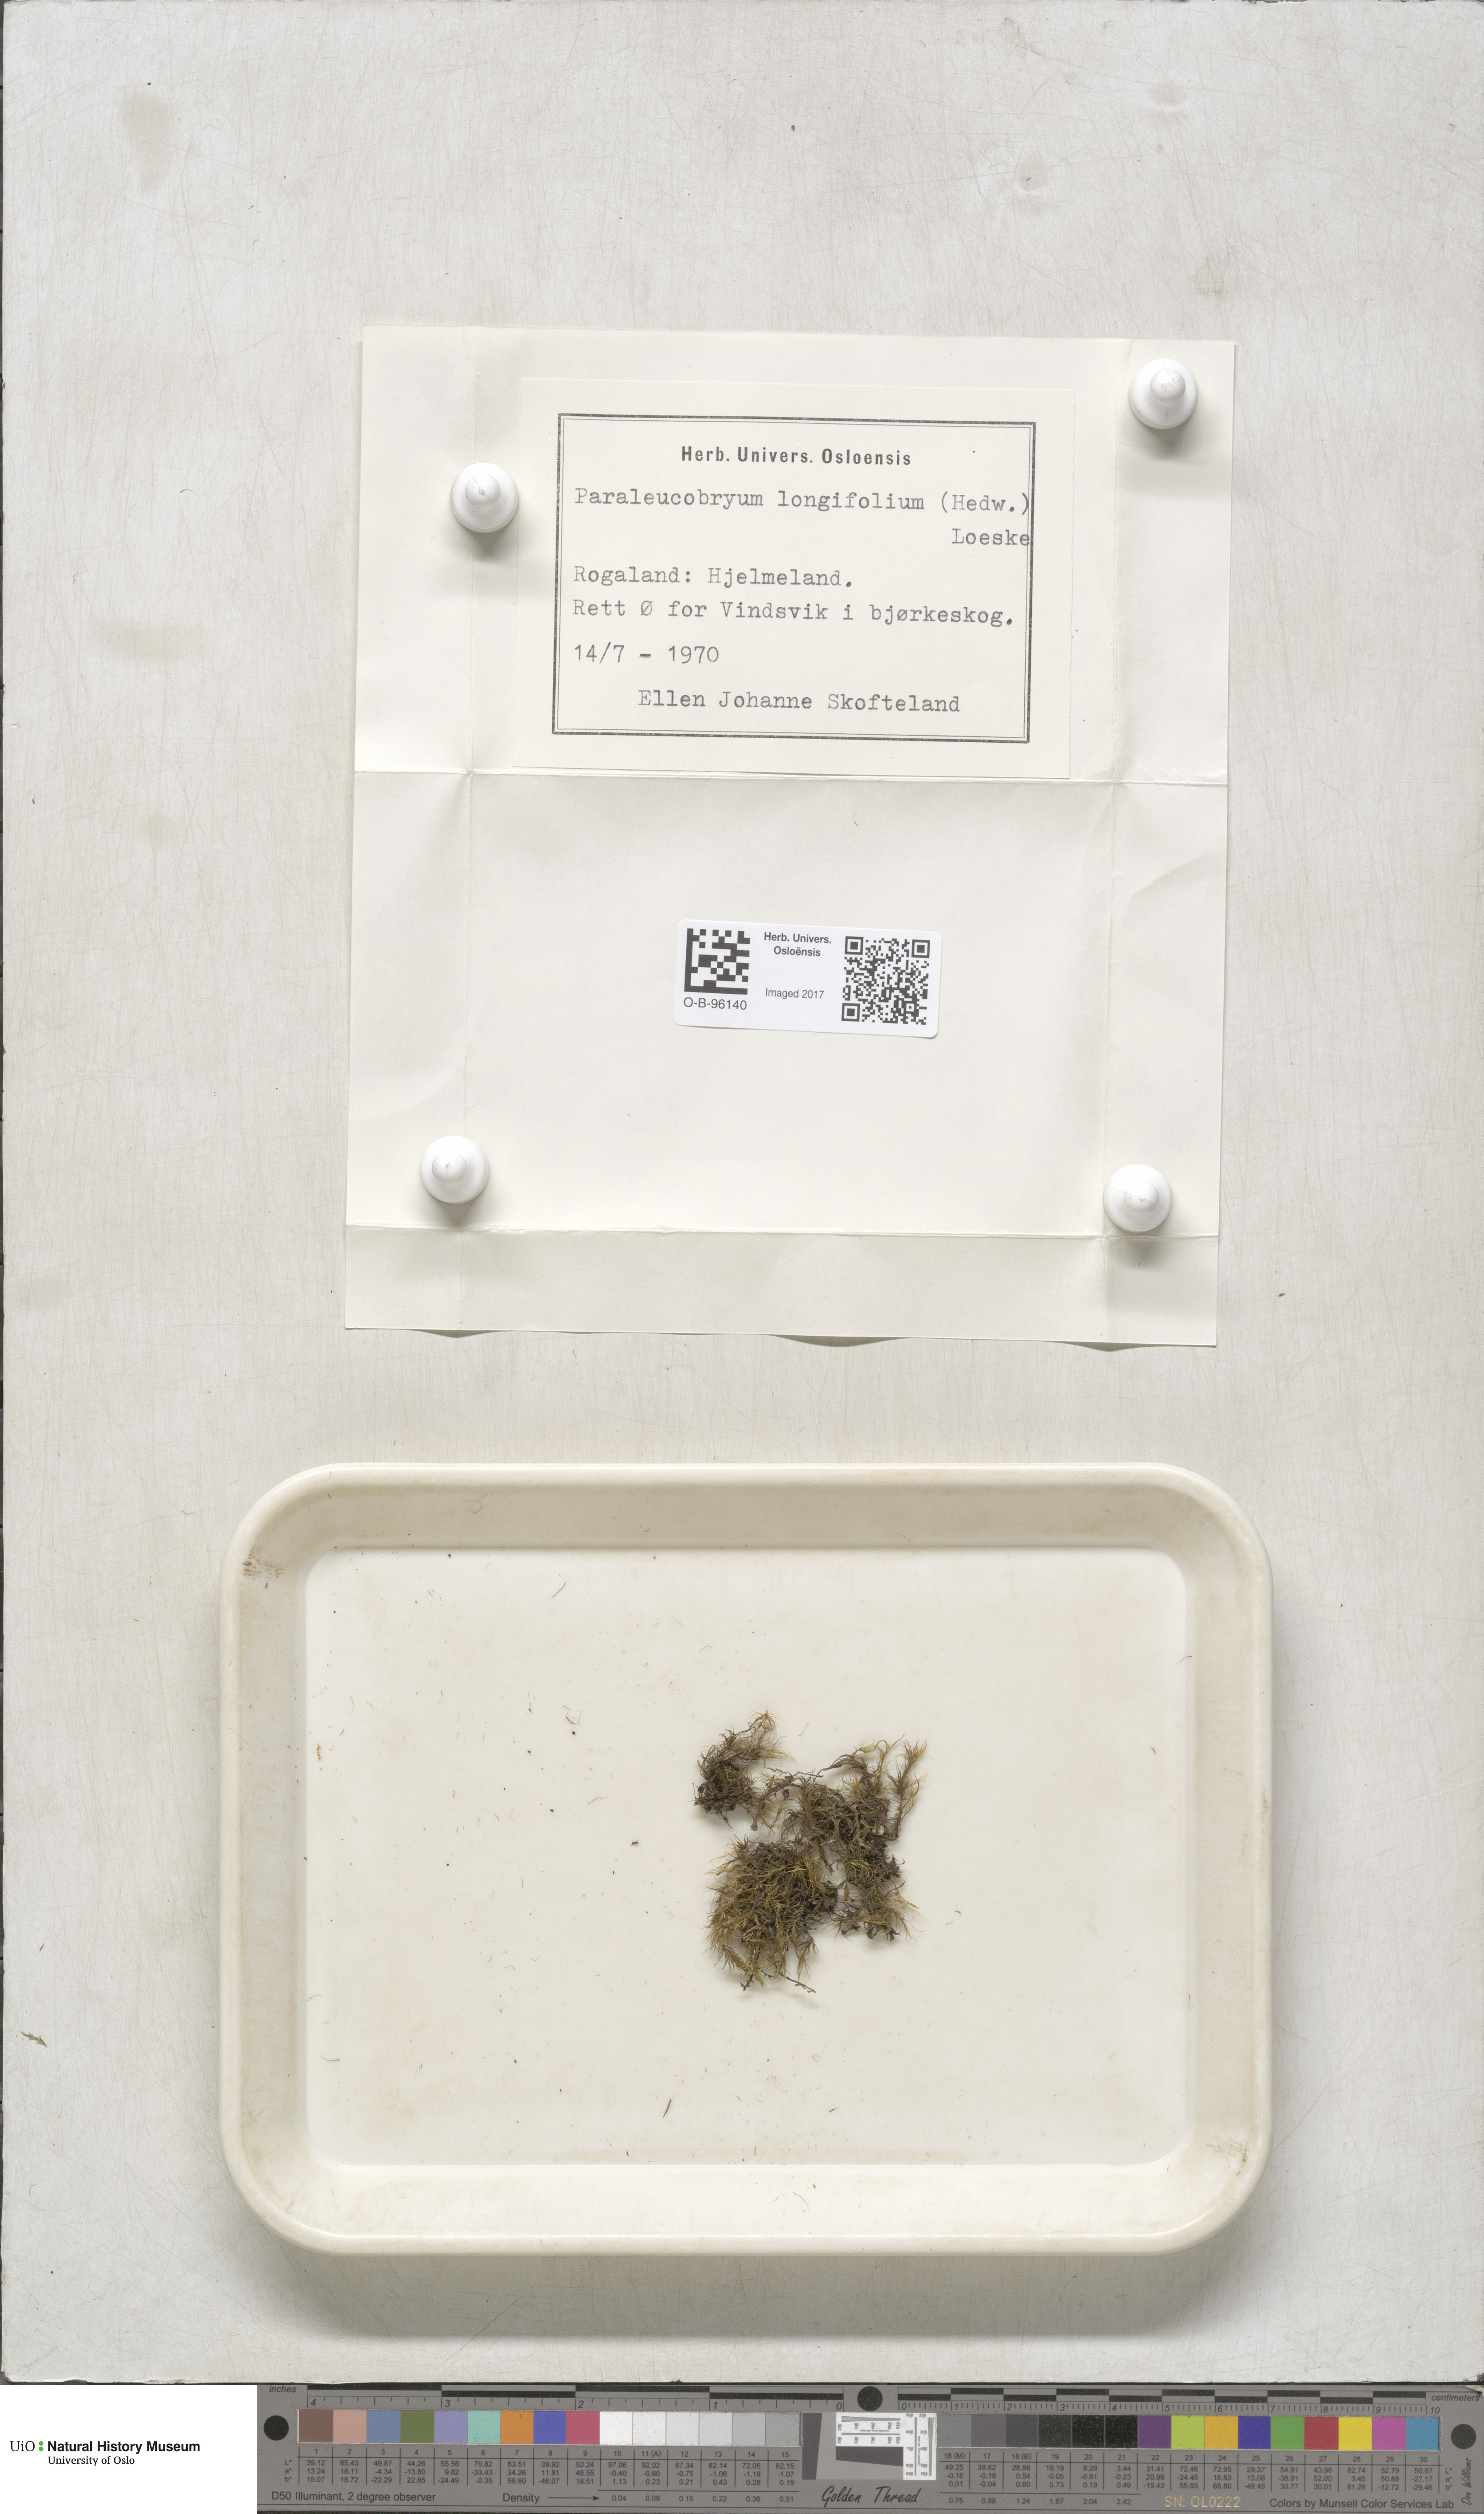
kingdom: Plantae
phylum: Bryophyta
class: Bryopsida
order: Dicranales
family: Dicranaceae
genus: Paraleucobryum
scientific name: Paraleucobryum longifolium
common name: Long-leaved fork moss
